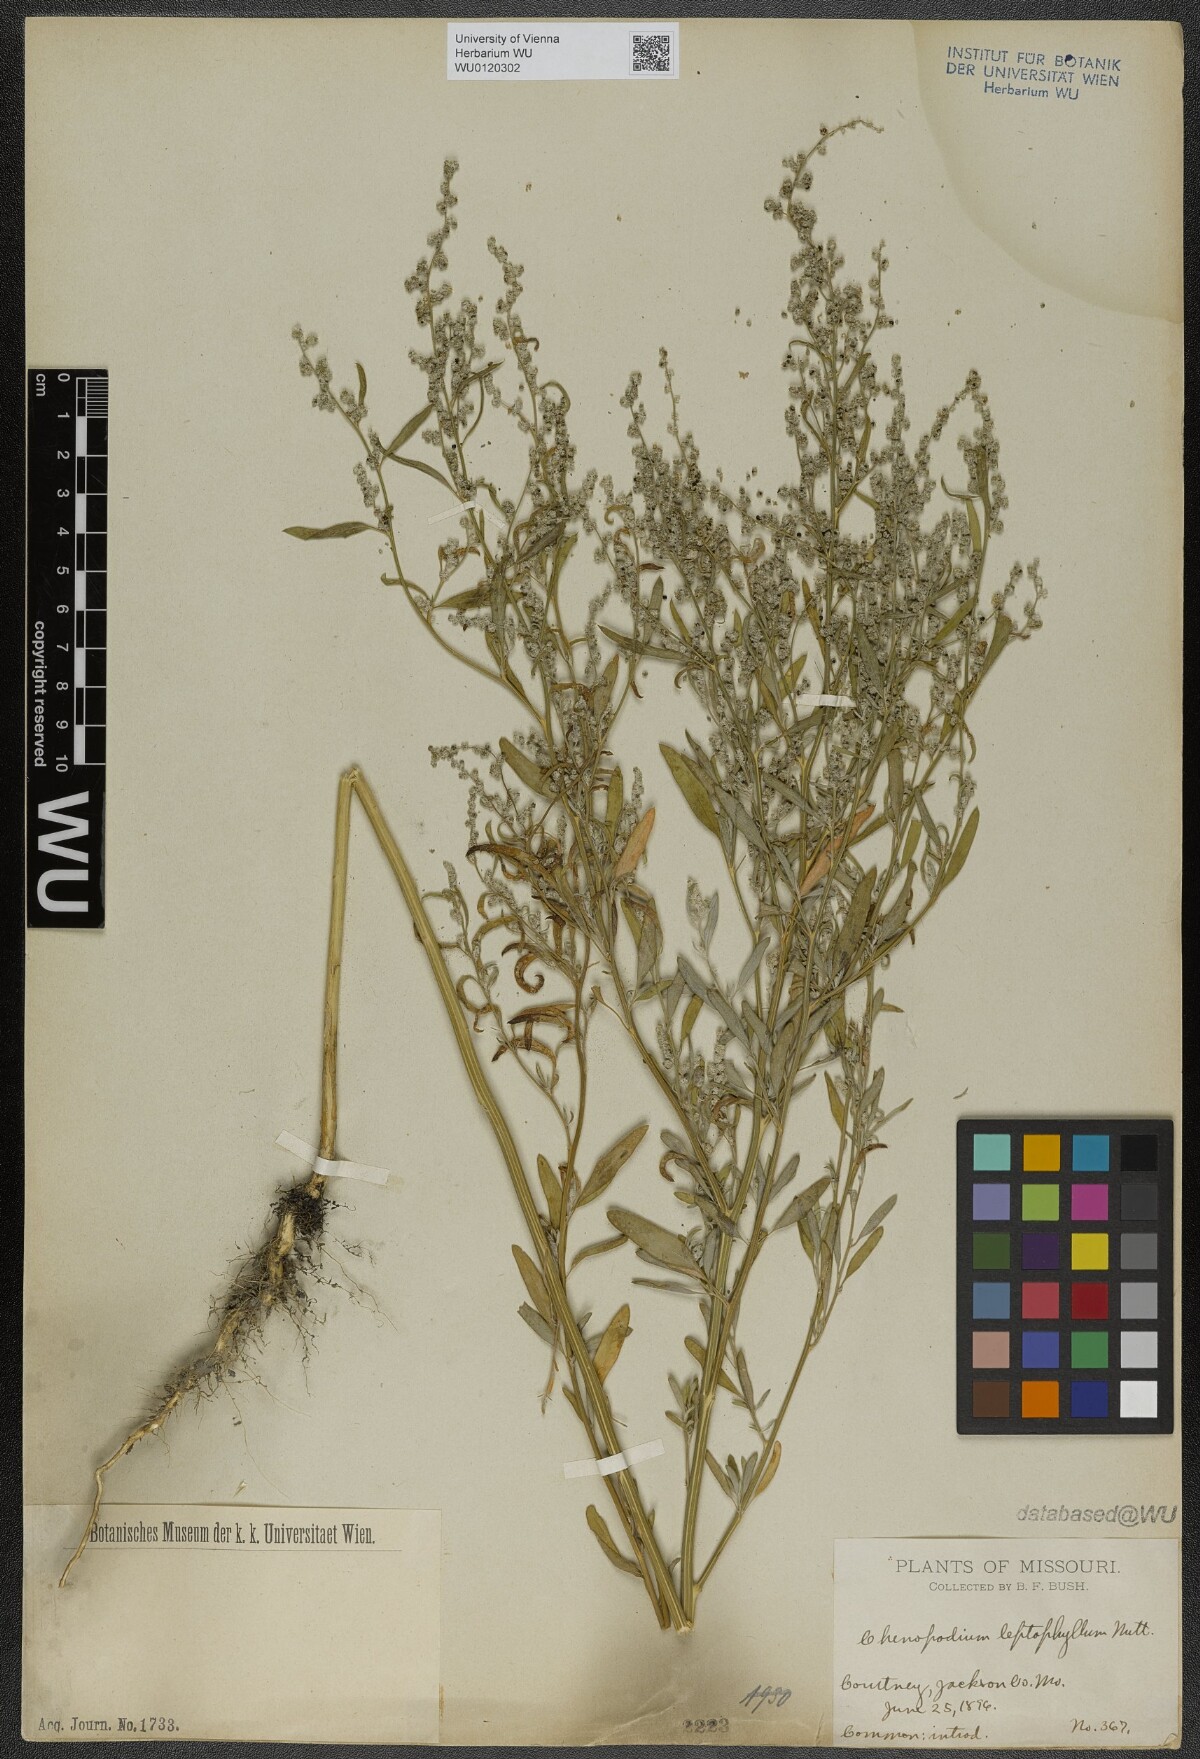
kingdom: Plantae
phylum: Tracheophyta
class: Magnoliopsida
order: Caryophyllales
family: Amaranthaceae
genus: Chenopodium
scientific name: Chenopodium leptophyllum
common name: Narrow-leaf goosefoot
